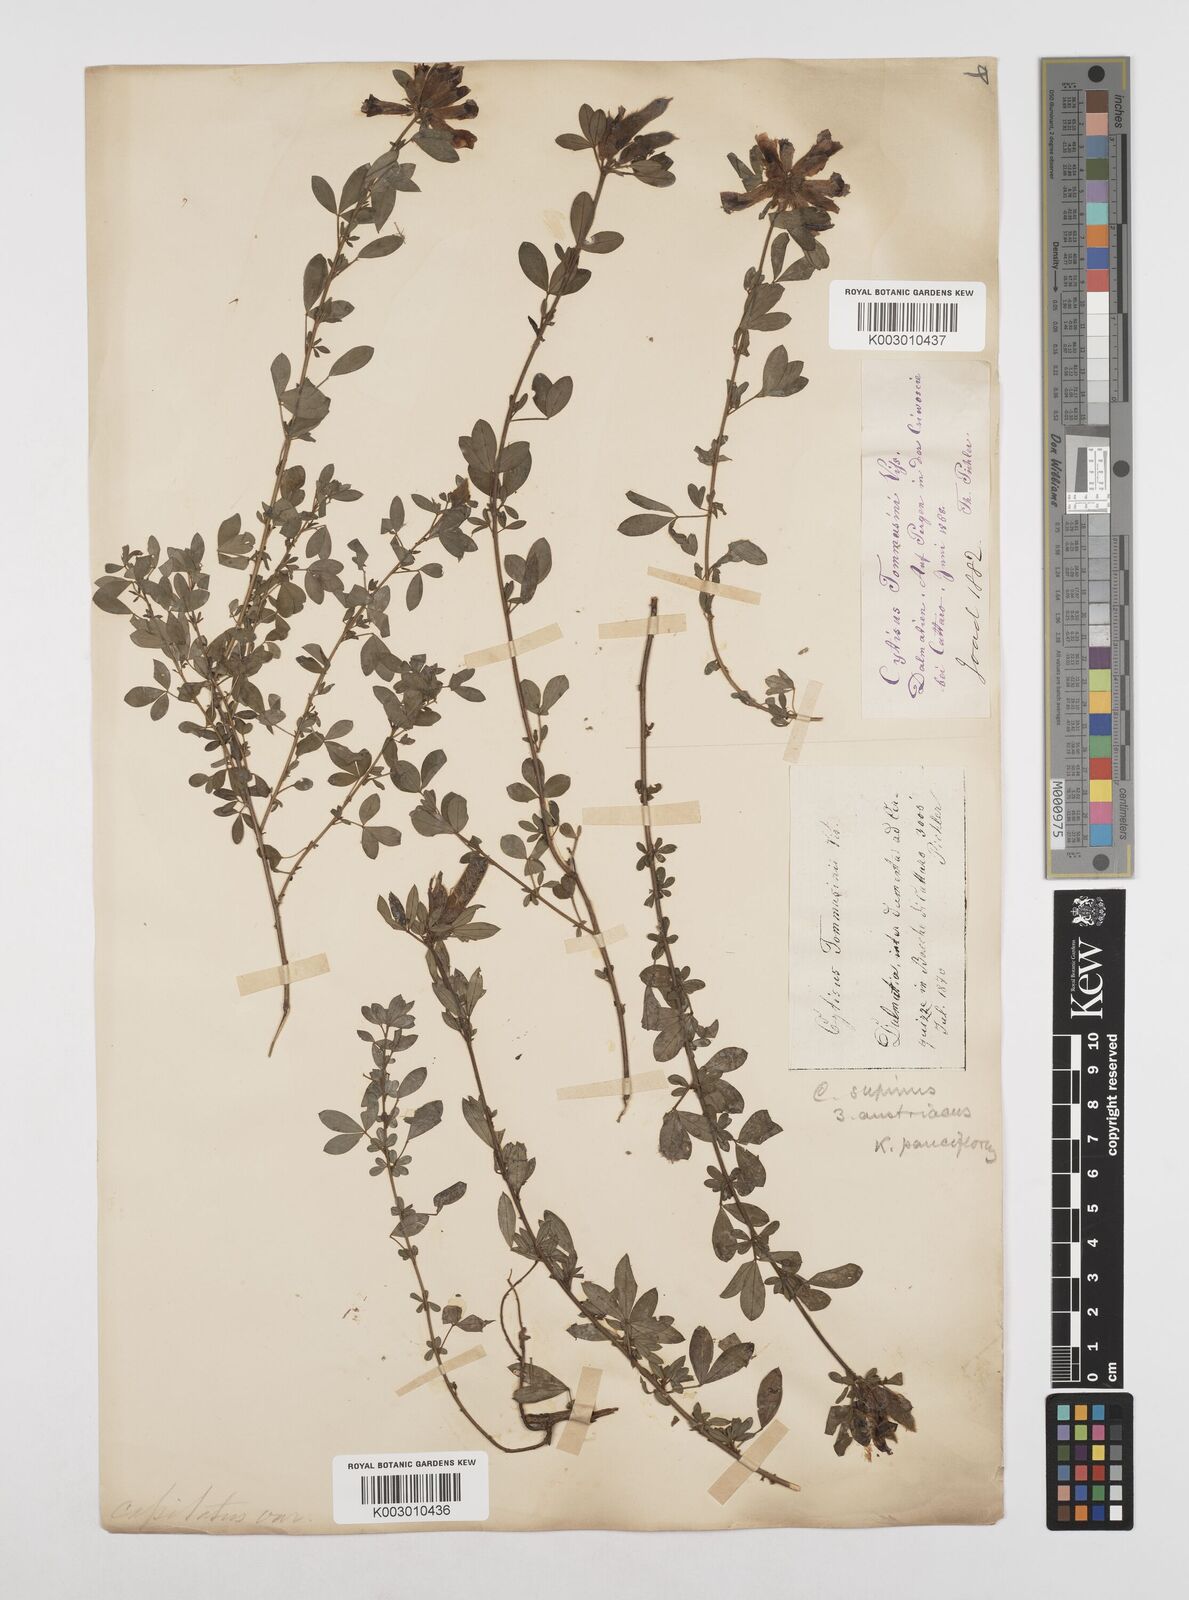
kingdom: Plantae
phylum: Tracheophyta
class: Magnoliopsida
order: Fabales
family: Fabaceae
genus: Chamaecytisus
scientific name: Chamaecytisus tommasinii
